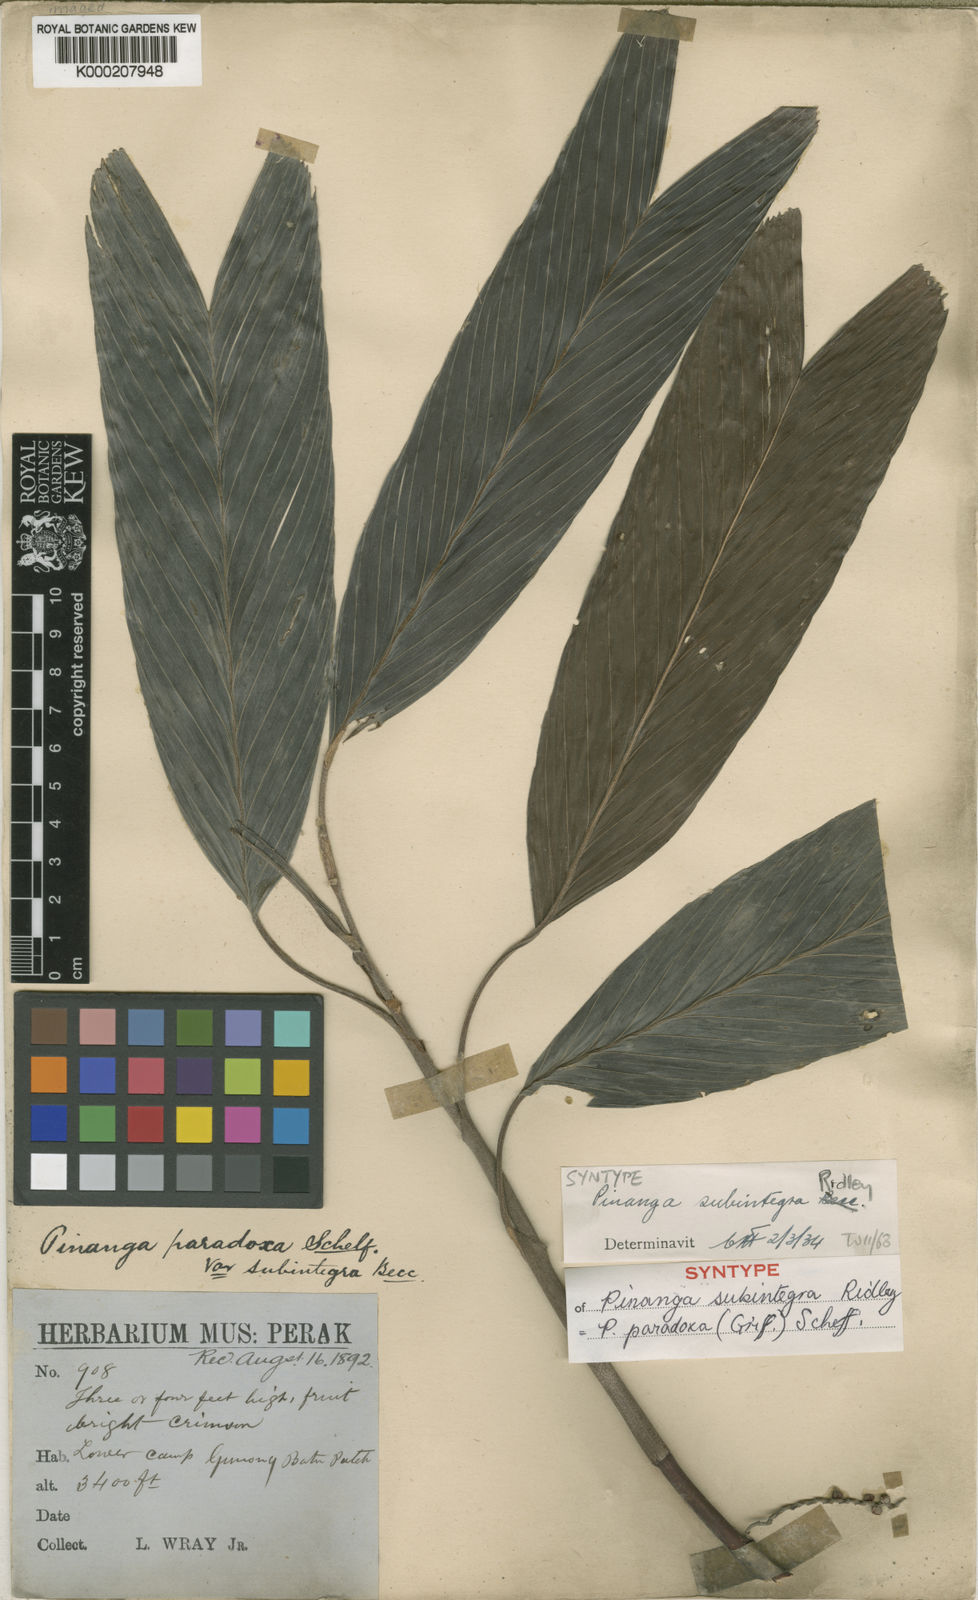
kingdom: Plantae
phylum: Tracheophyta
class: Liliopsida
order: Arecales
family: Arecaceae
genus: Pinanga
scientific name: Pinanga subintegra
